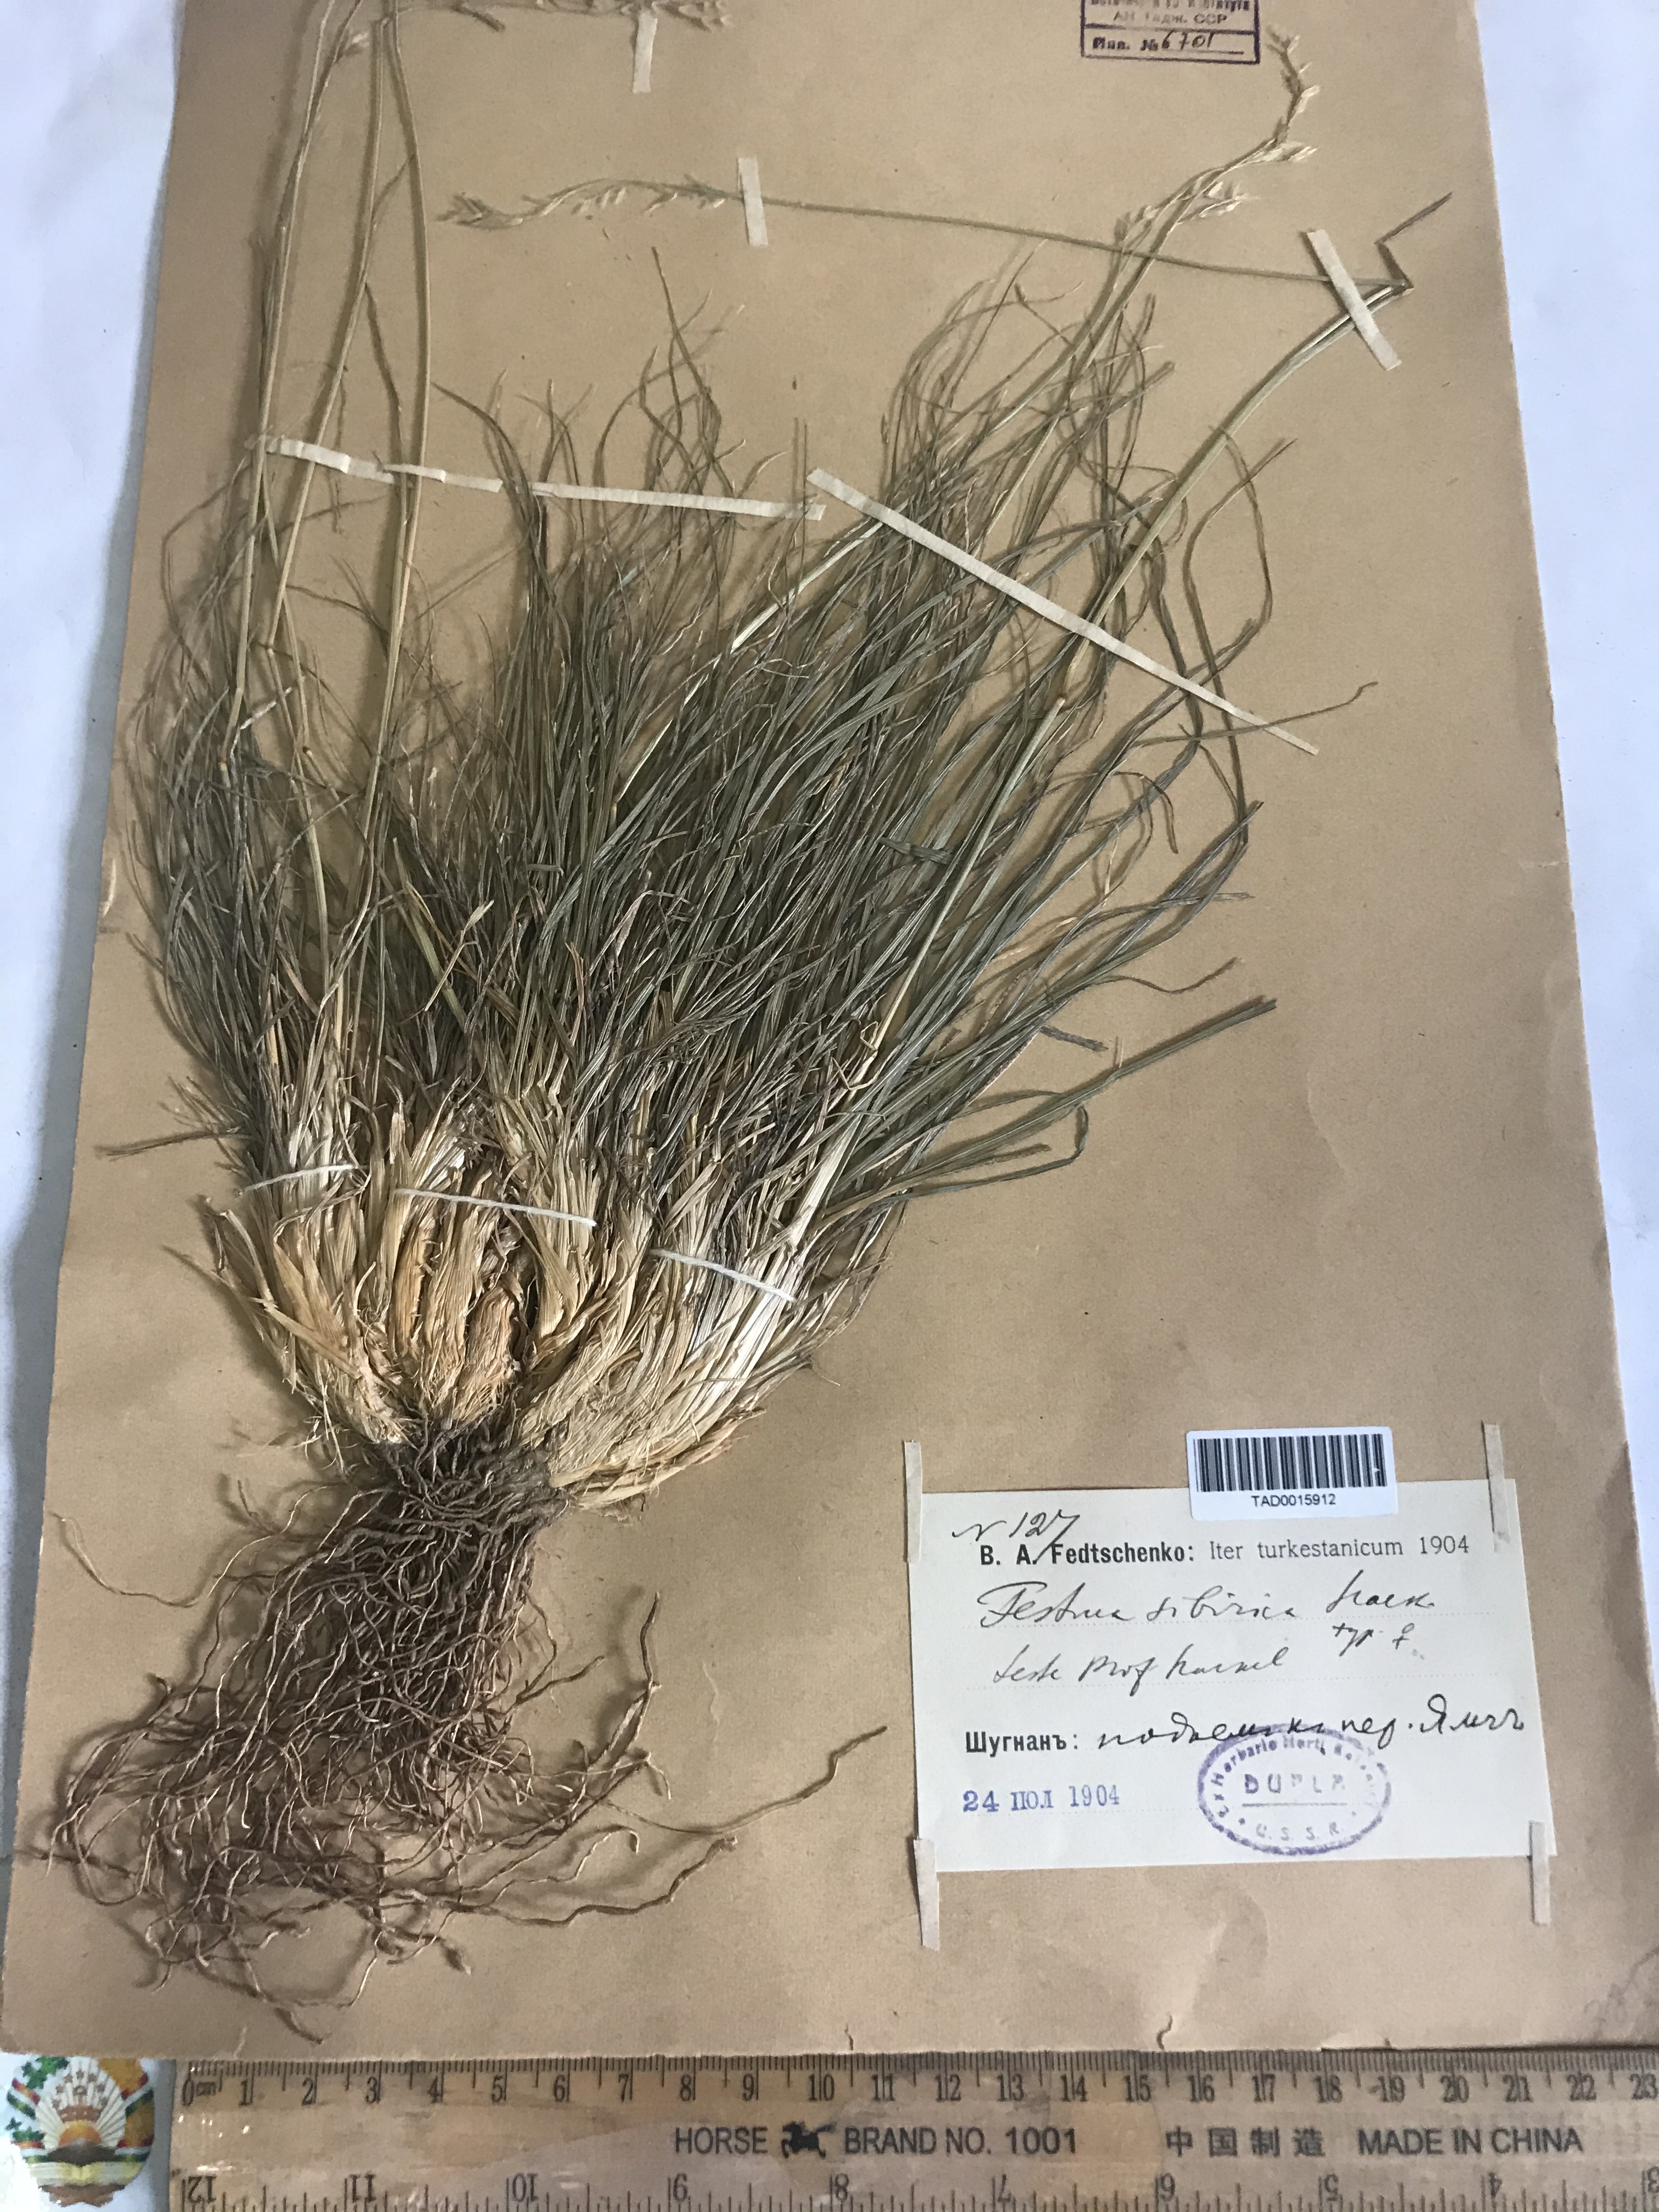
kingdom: Plantae
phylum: Tracheophyta
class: Liliopsida
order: Poales
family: Poaceae
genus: Festuca
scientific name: Festuca sibirica
